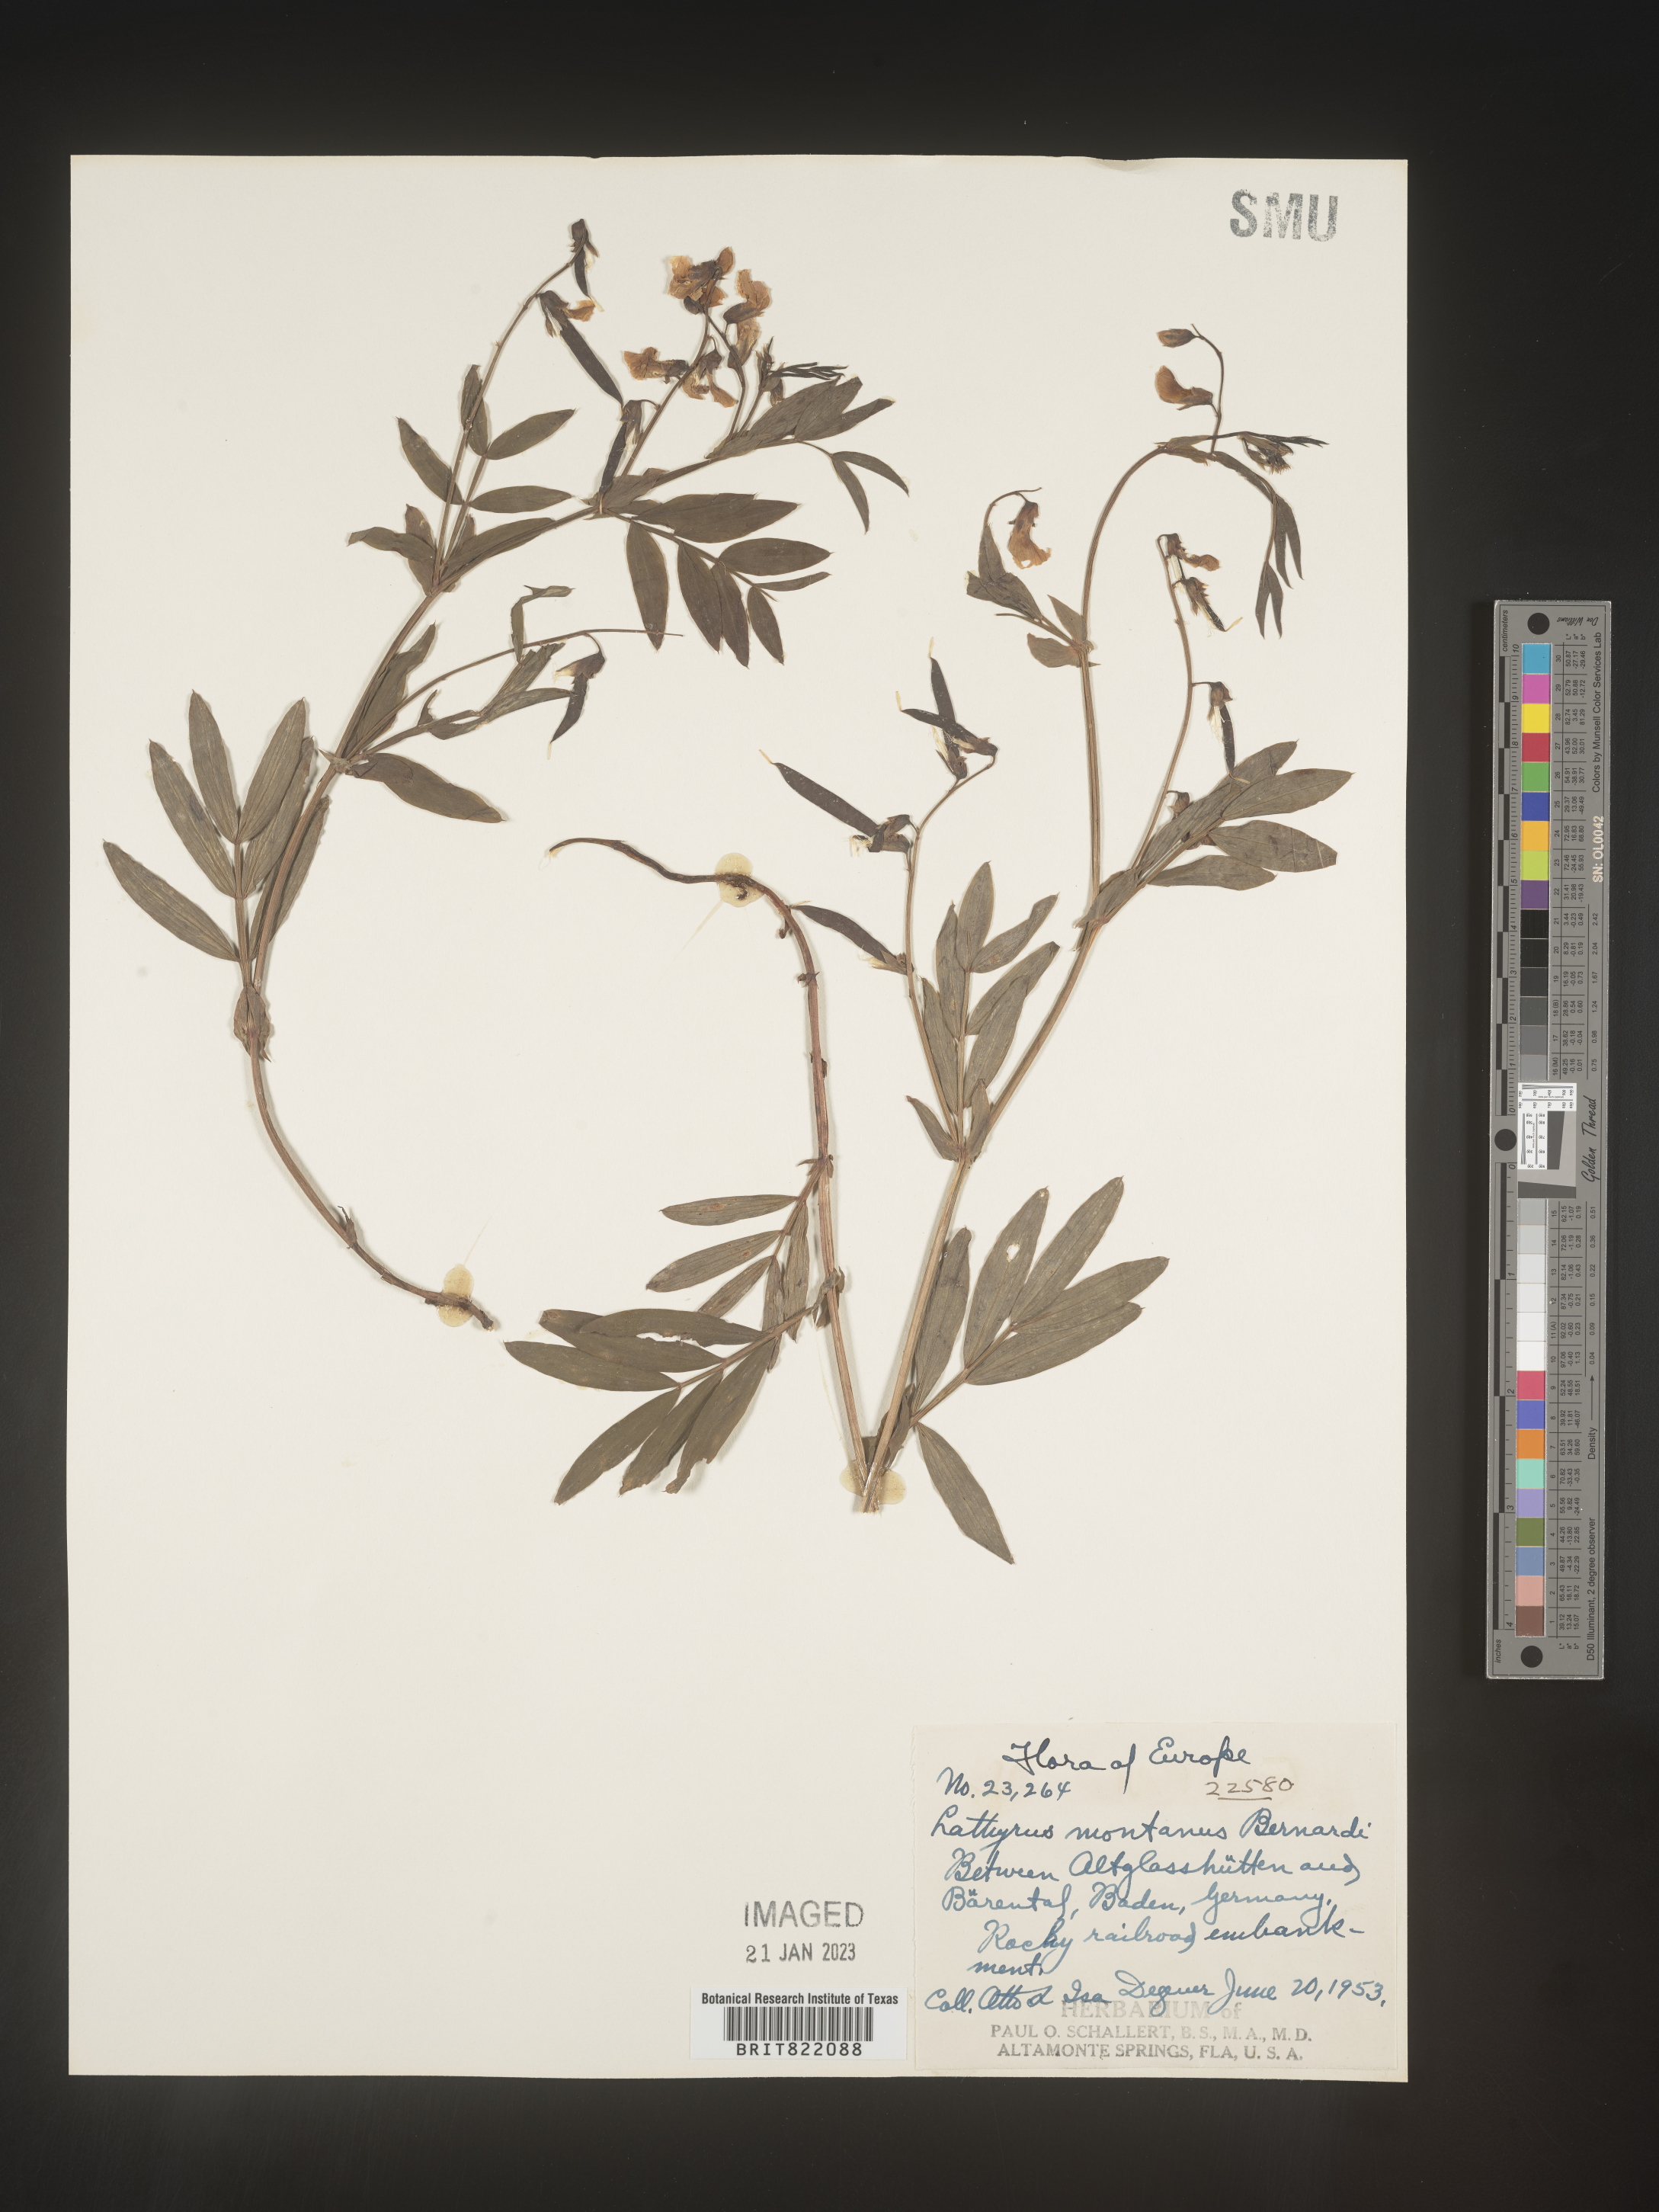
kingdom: Plantae
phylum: Tracheophyta
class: Magnoliopsida
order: Fabales
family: Fabaceae
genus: Lathyrus
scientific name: Lathyrus
